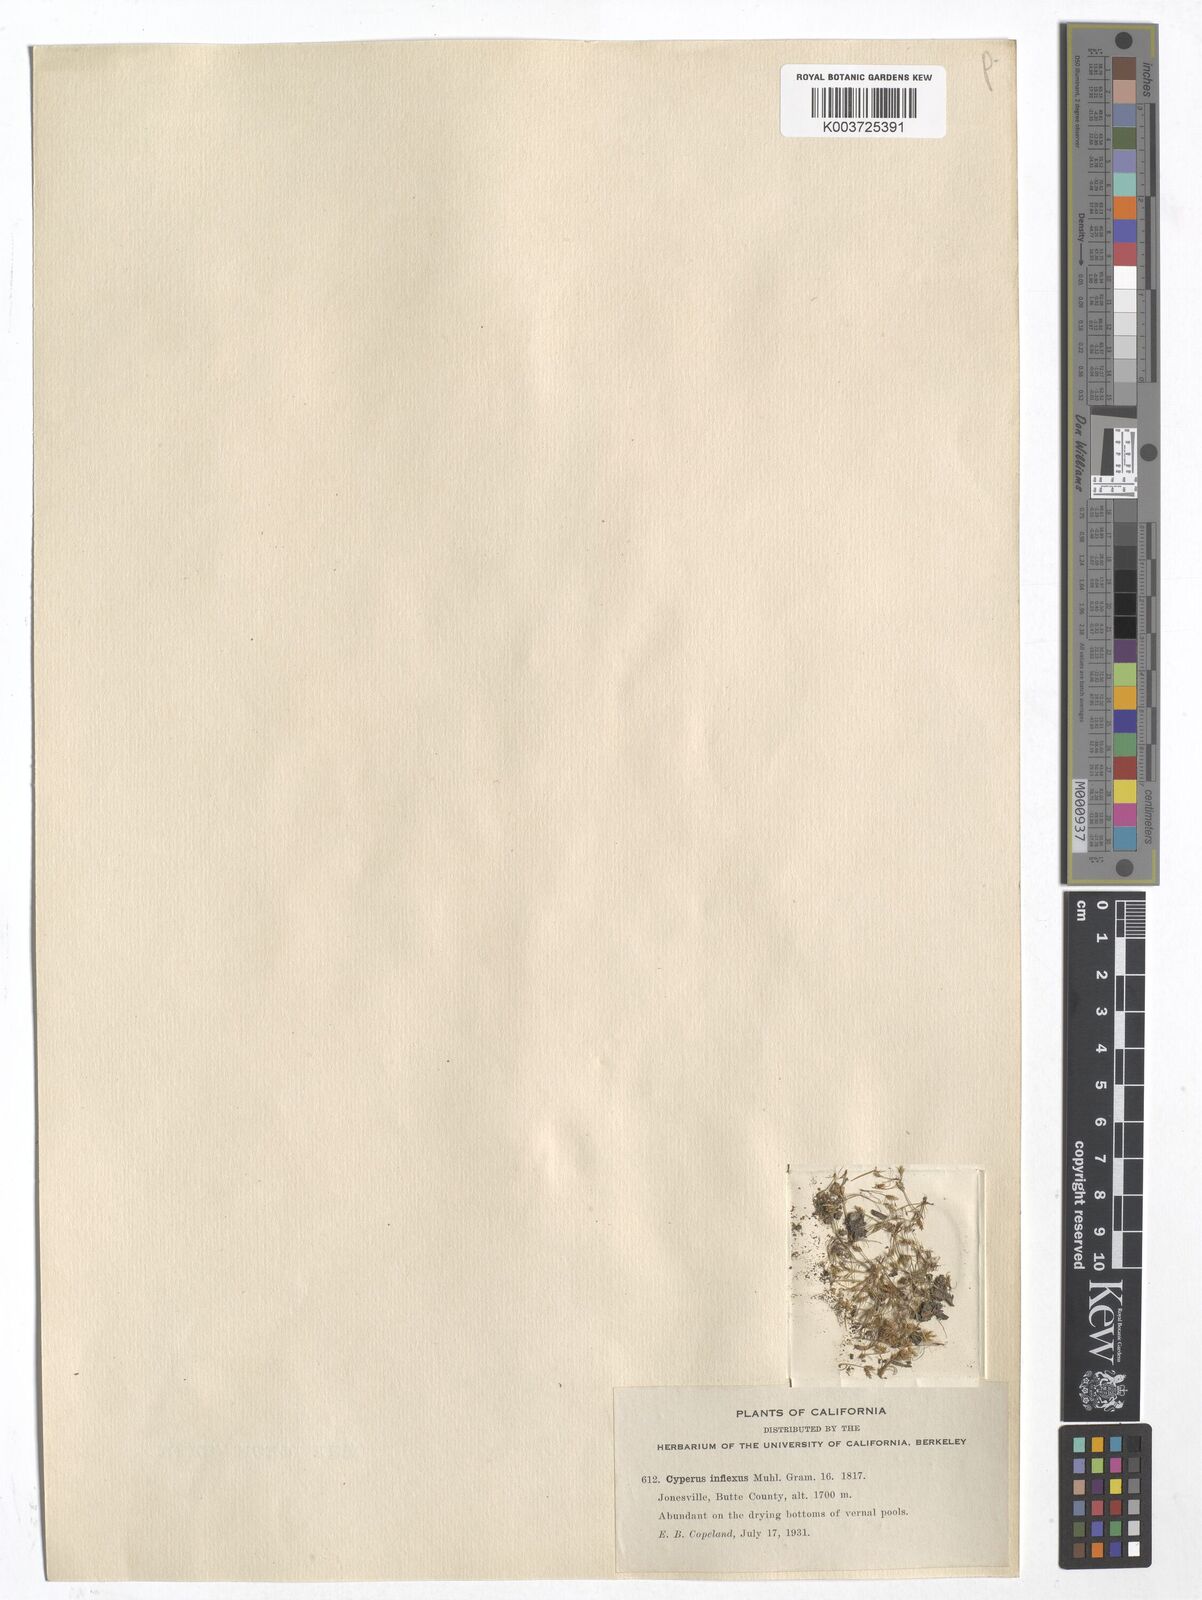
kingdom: Plantae
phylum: Tracheophyta
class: Liliopsida
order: Poales
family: Cyperaceae
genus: Cyperus
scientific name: Cyperus squarrosus
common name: Awned cyperus
